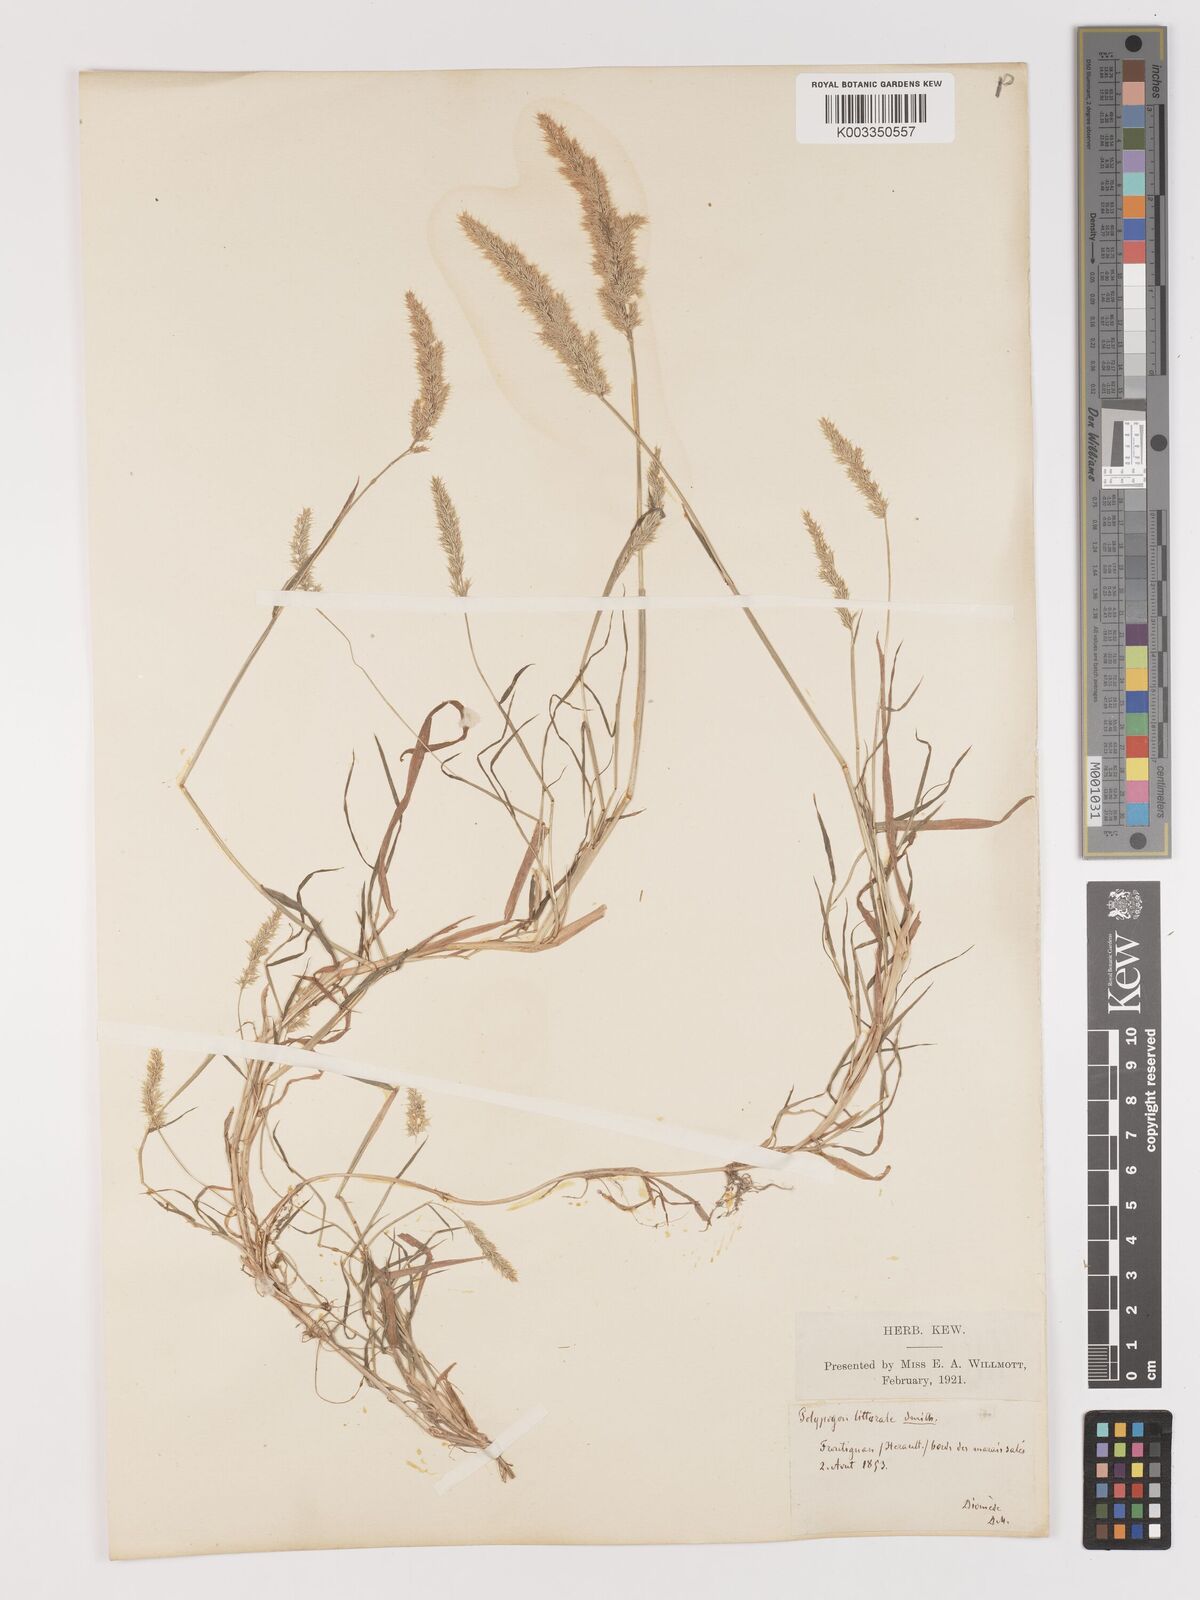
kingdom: Plantae
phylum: Tracheophyta
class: Liliopsida
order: Poales
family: Poaceae
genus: Agropogon
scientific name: Agropogon lutosus
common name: Coast agropogon
